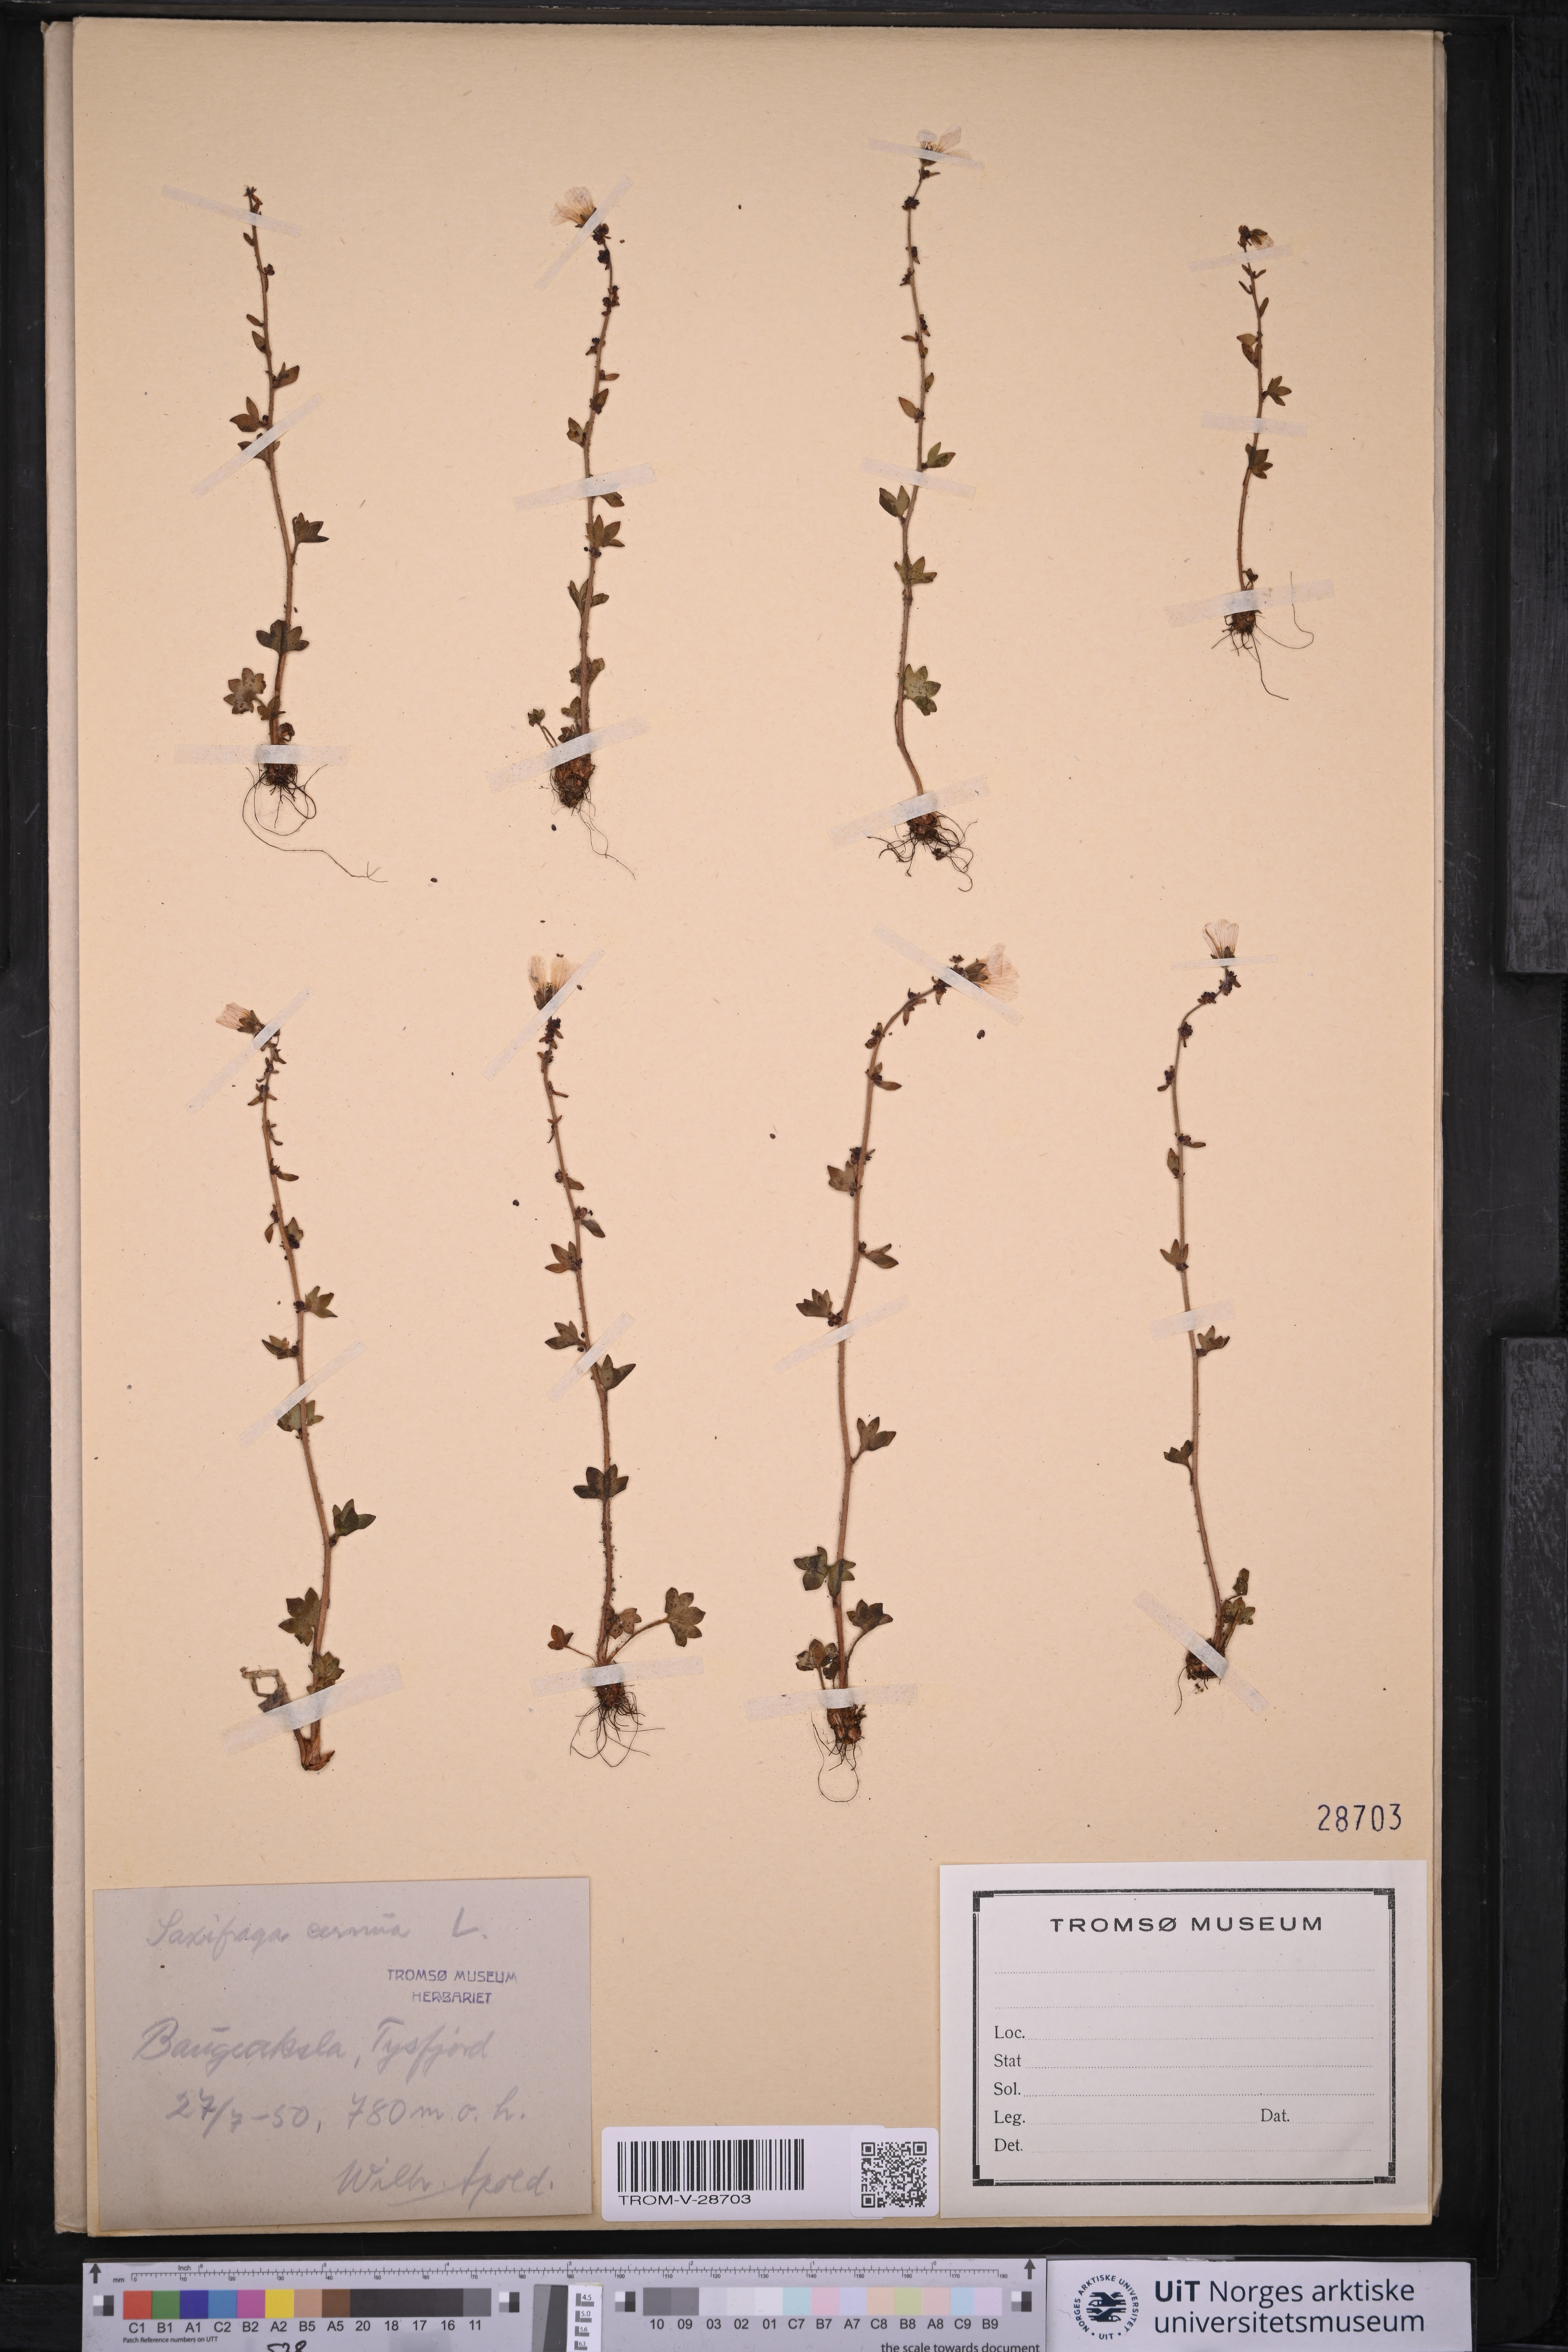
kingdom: Plantae
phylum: Tracheophyta
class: Magnoliopsida
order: Saxifragales
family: Saxifragaceae
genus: Saxifraga
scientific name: Saxifraga cernua
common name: Drooping saxifrage
